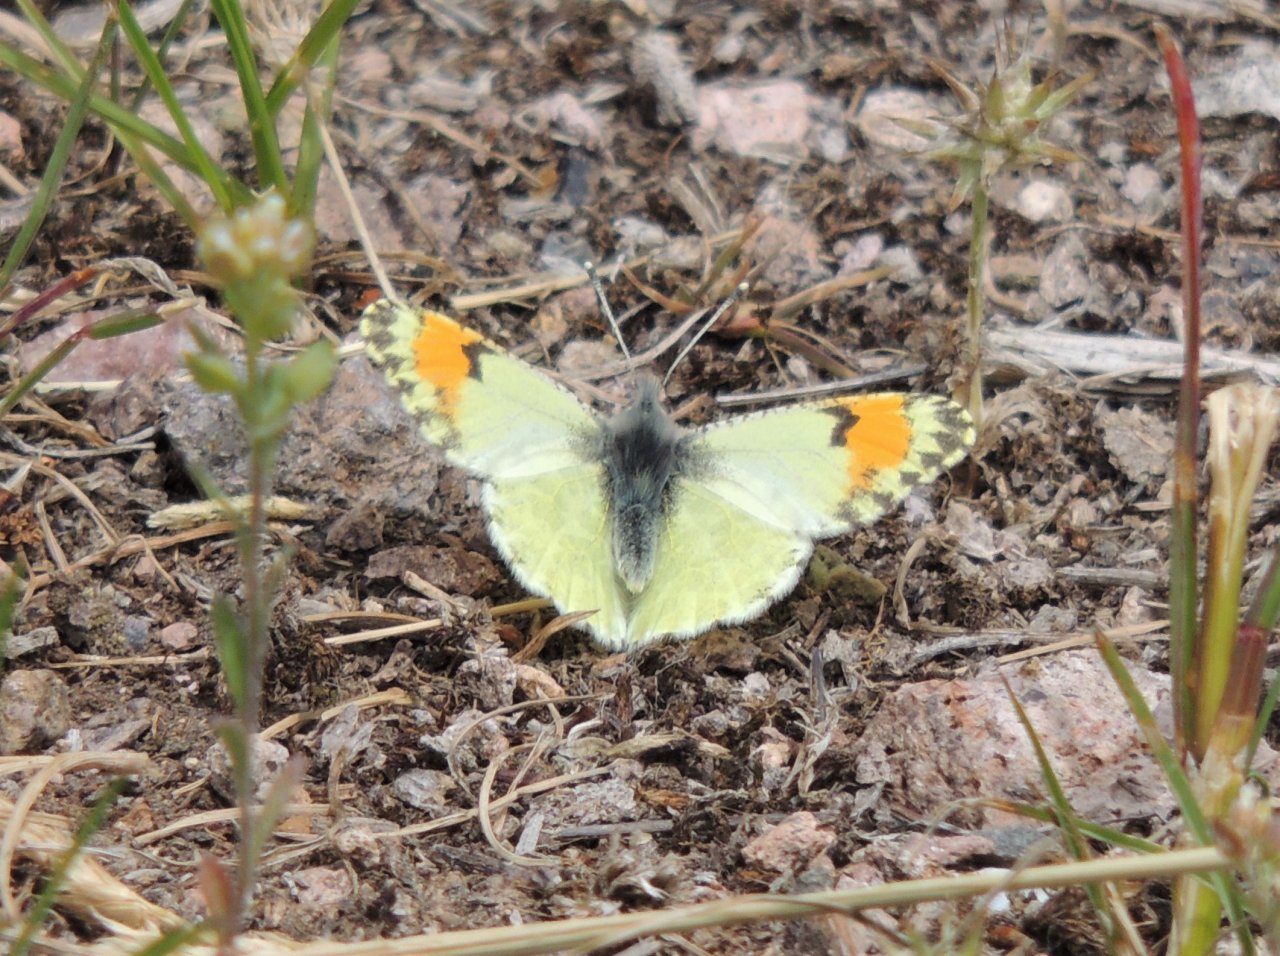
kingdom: Animalia
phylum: Arthropoda
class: Insecta
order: Lepidoptera
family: Pieridae
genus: Anthocharis
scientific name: Anthocharis sara
